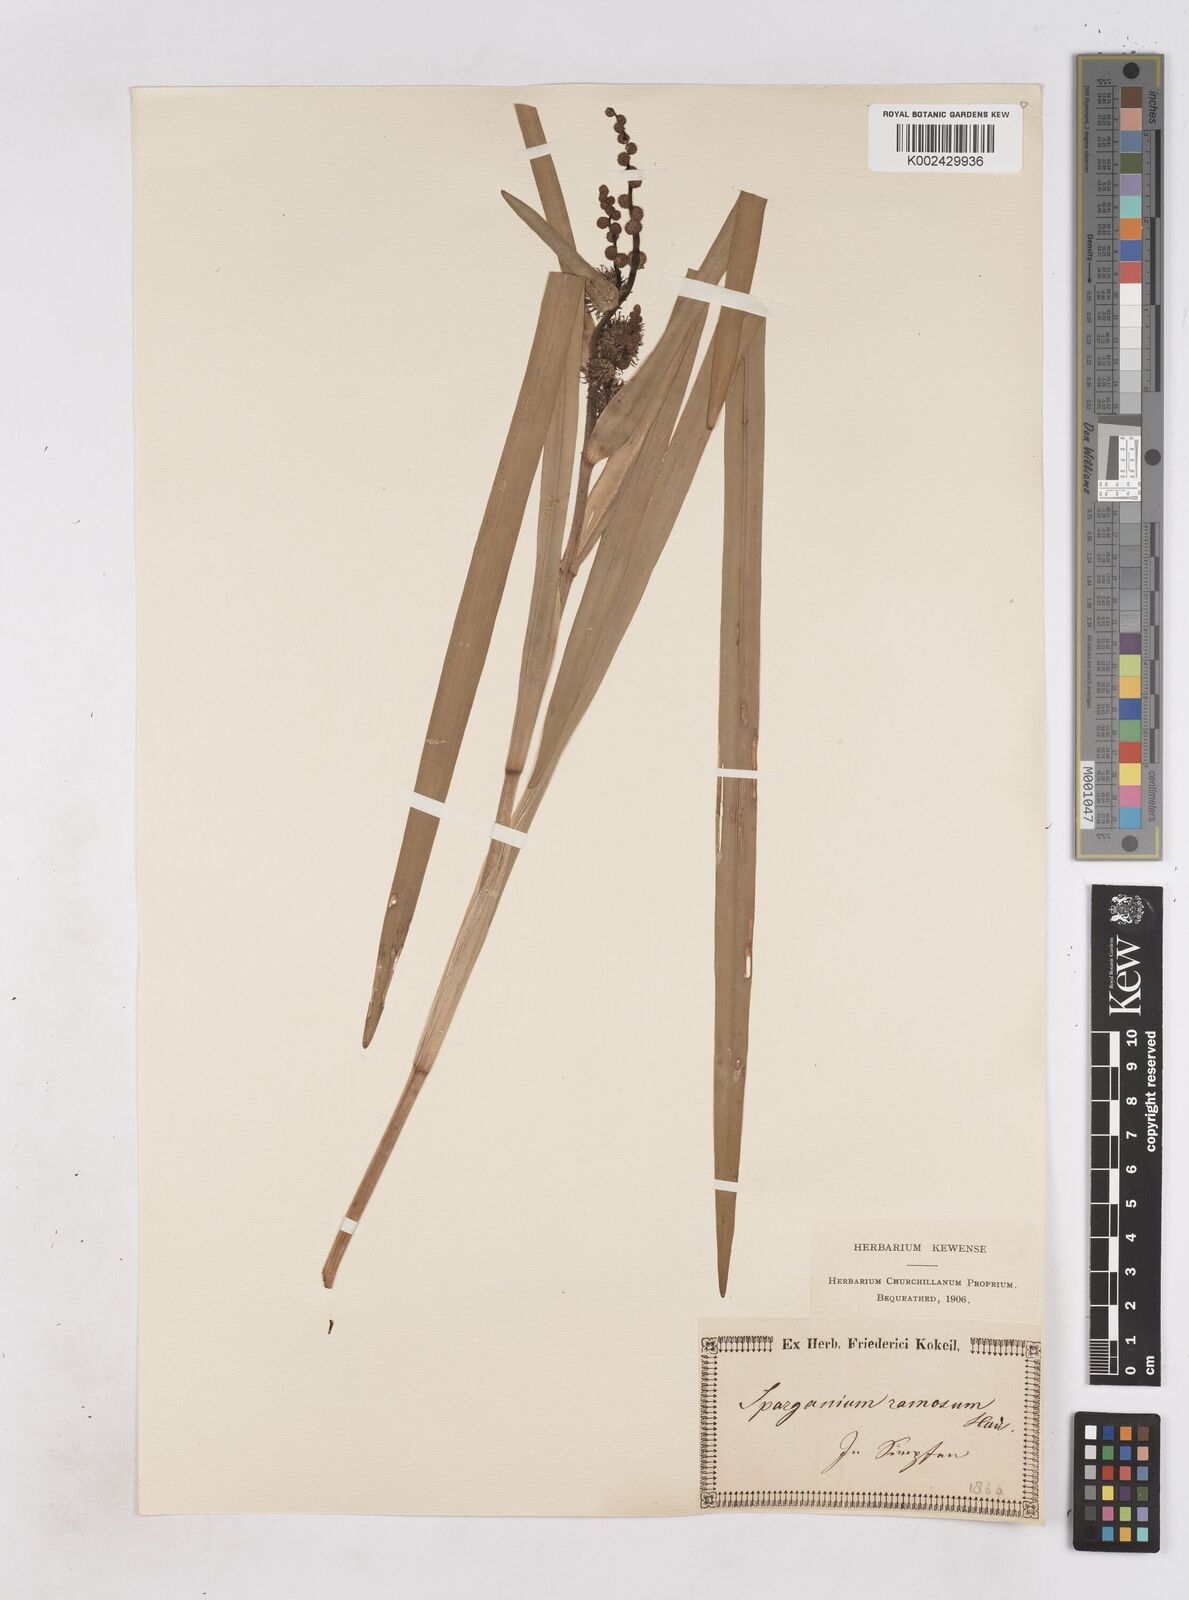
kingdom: Plantae
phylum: Tracheophyta
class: Liliopsida
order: Poales
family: Typhaceae
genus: Sparganium
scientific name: Sparganium erectum
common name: Branched bur-reed
